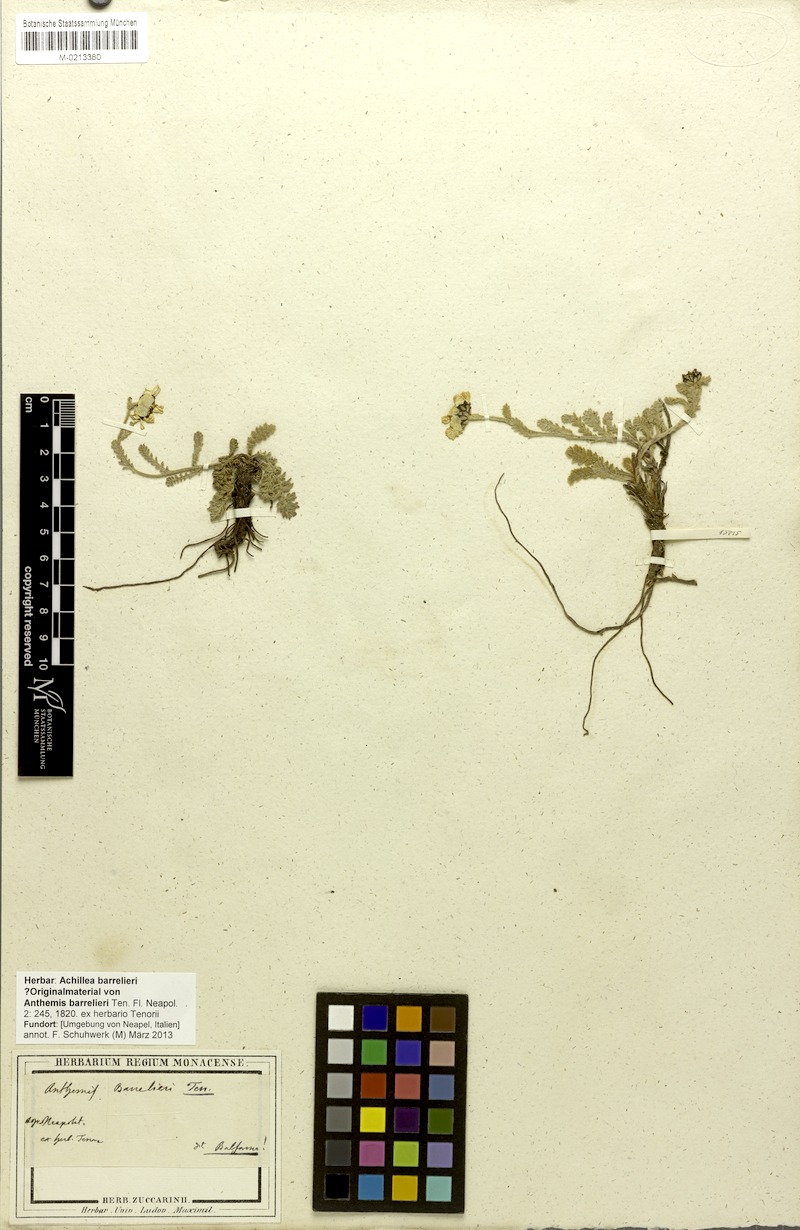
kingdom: Plantae
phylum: Tracheophyta
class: Magnoliopsida
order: Asterales
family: Asteraceae
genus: Achillea
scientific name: Achillea barrelieri
